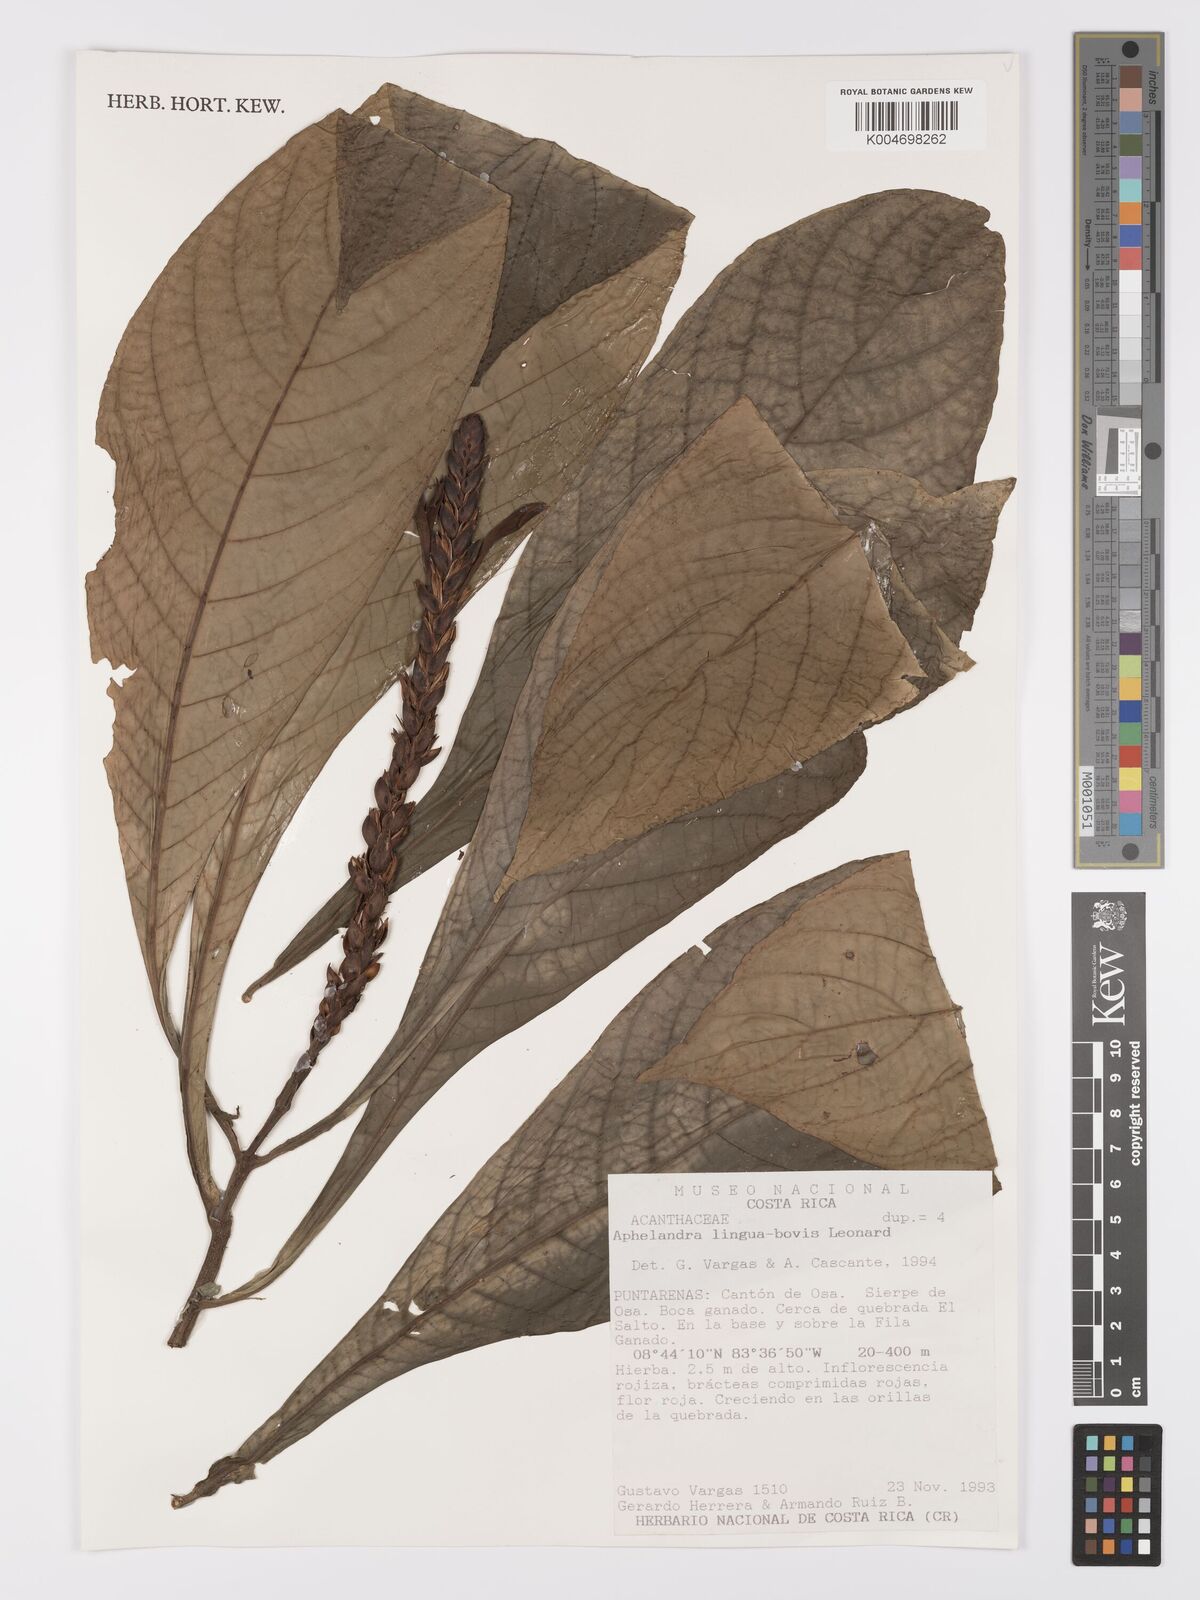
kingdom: Plantae
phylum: Tracheophyta
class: Magnoliopsida
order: Lamiales
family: Acanthaceae
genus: Aphelandra
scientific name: Aphelandra lingua-bovis
